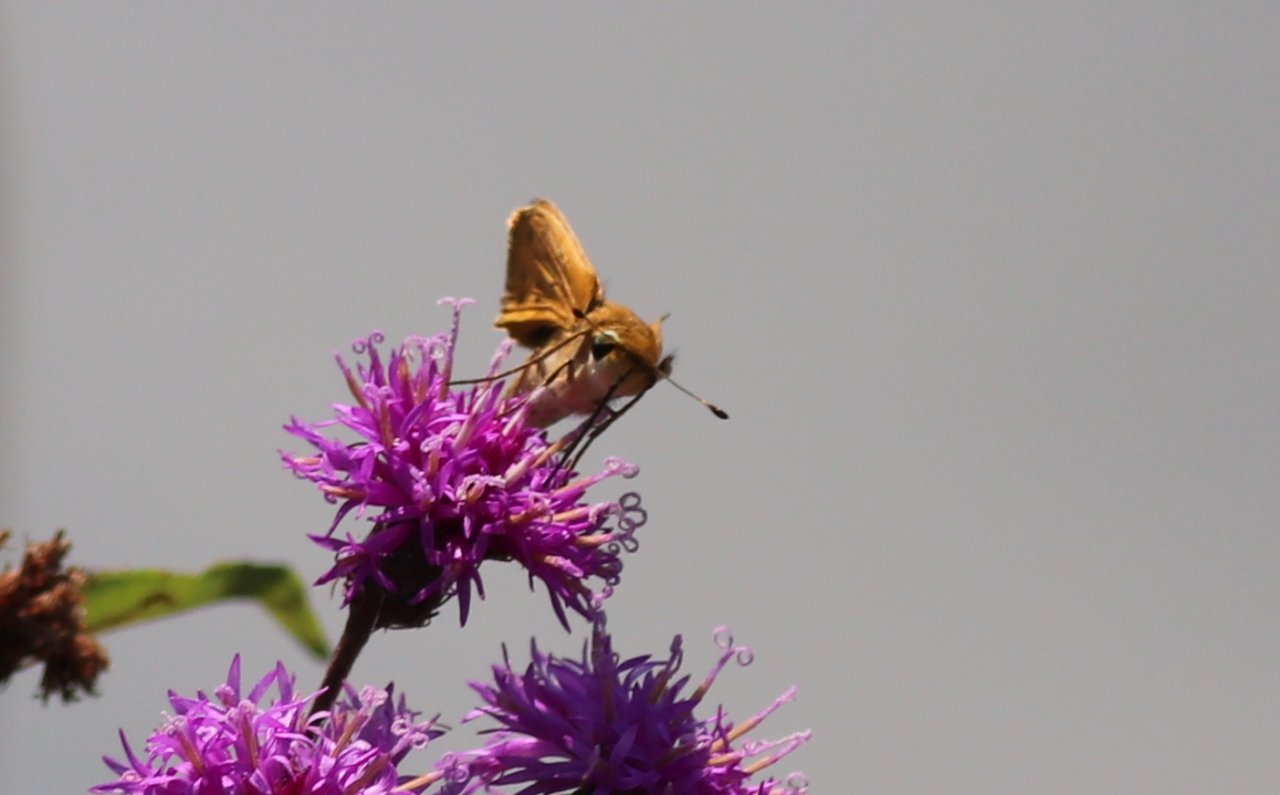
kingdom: Animalia
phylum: Arthropoda
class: Insecta
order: Lepidoptera
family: Hesperiidae
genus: Ancyloxypha
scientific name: Ancyloxypha numitor
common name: Least Skipper
